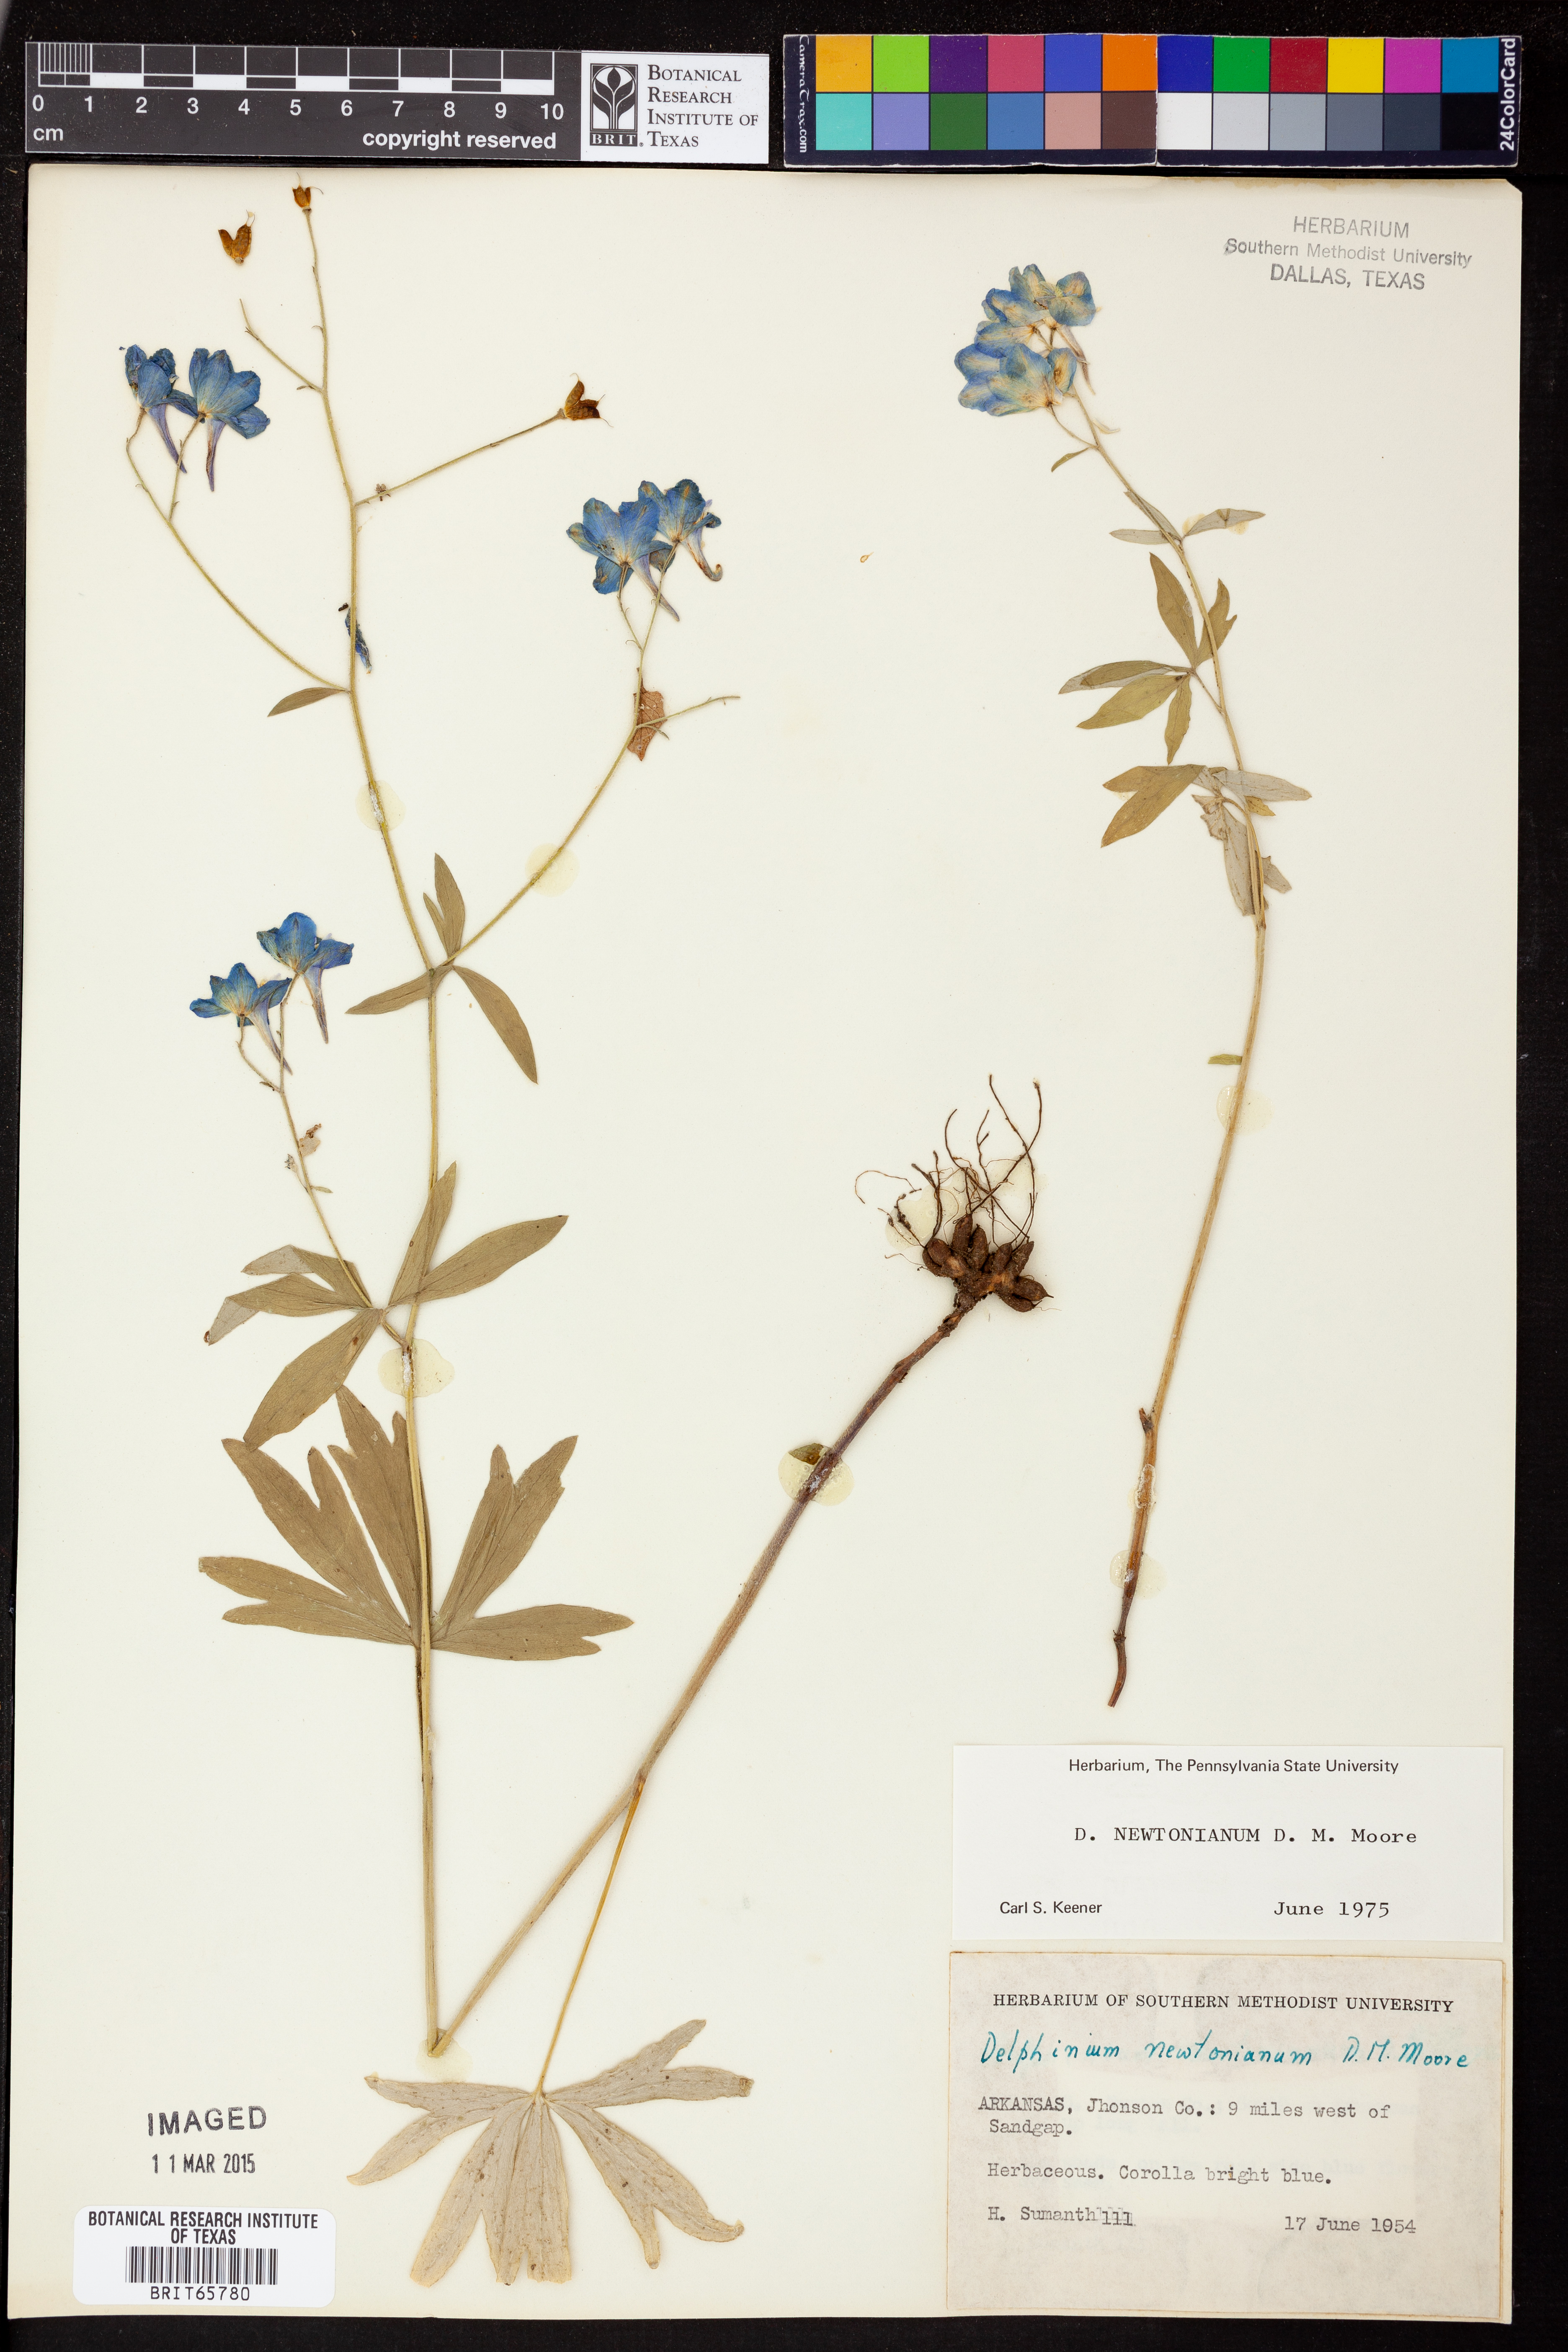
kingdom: Plantae
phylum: Tracheophyta
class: Magnoliopsida
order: Ranunculales
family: Ranunculaceae
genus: Delphinium
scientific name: Delphinium newtonianum
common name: Ozark larkspur
